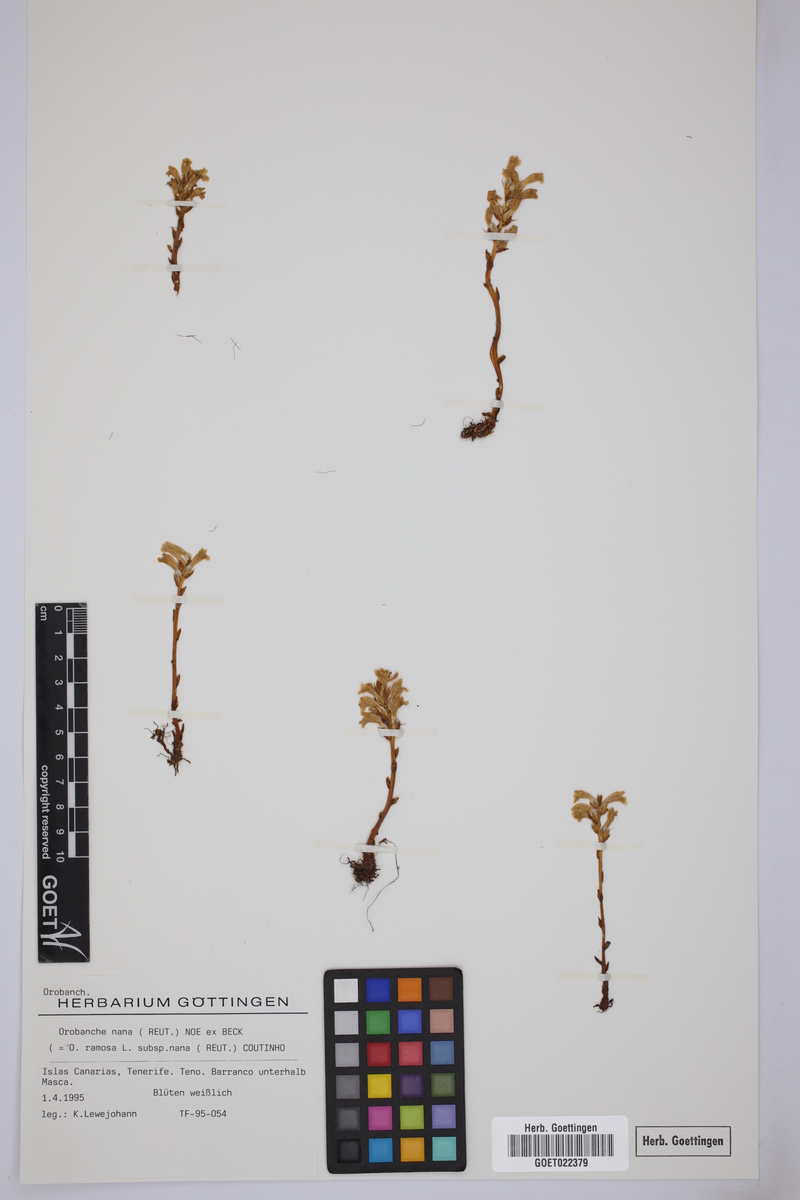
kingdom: Plantae
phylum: Tracheophyta
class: Magnoliopsida
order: Lamiales
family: Orobanchaceae
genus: Phelipanche
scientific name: Phelipanche mutelii
